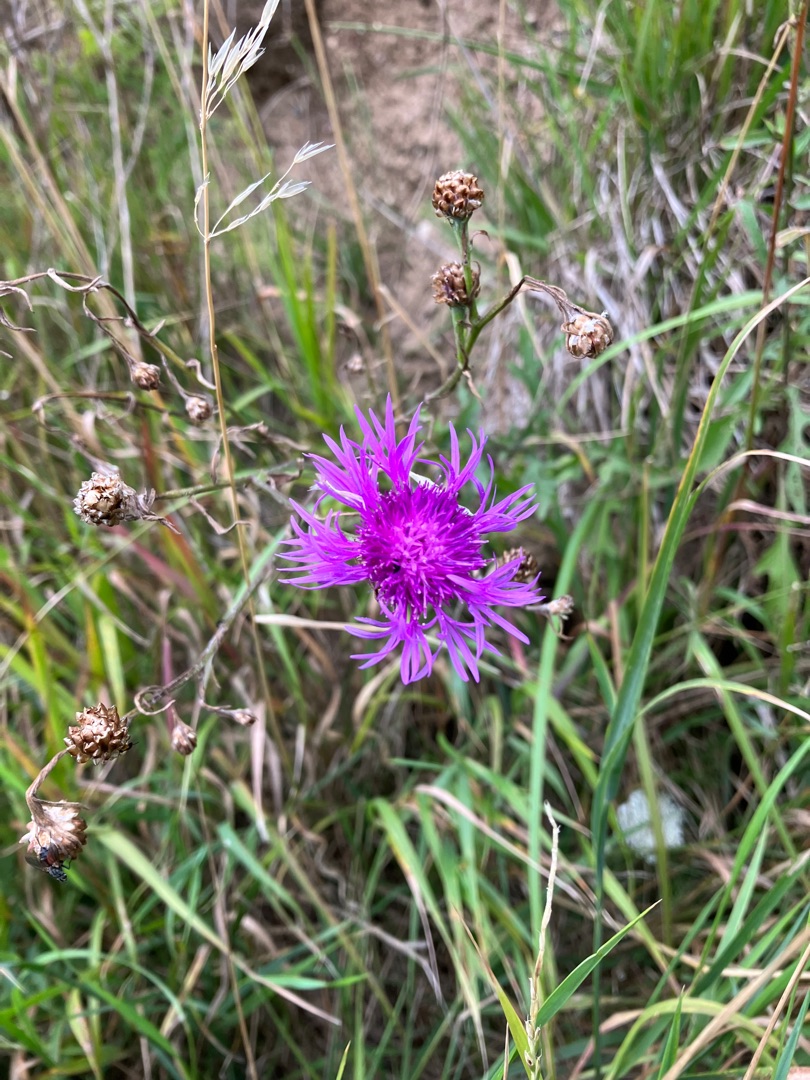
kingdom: Plantae
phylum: Tracheophyta
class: Magnoliopsida
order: Asterales
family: Asteraceae
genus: Centaurea
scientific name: Centaurea jacea
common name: Almindelig knopurt
